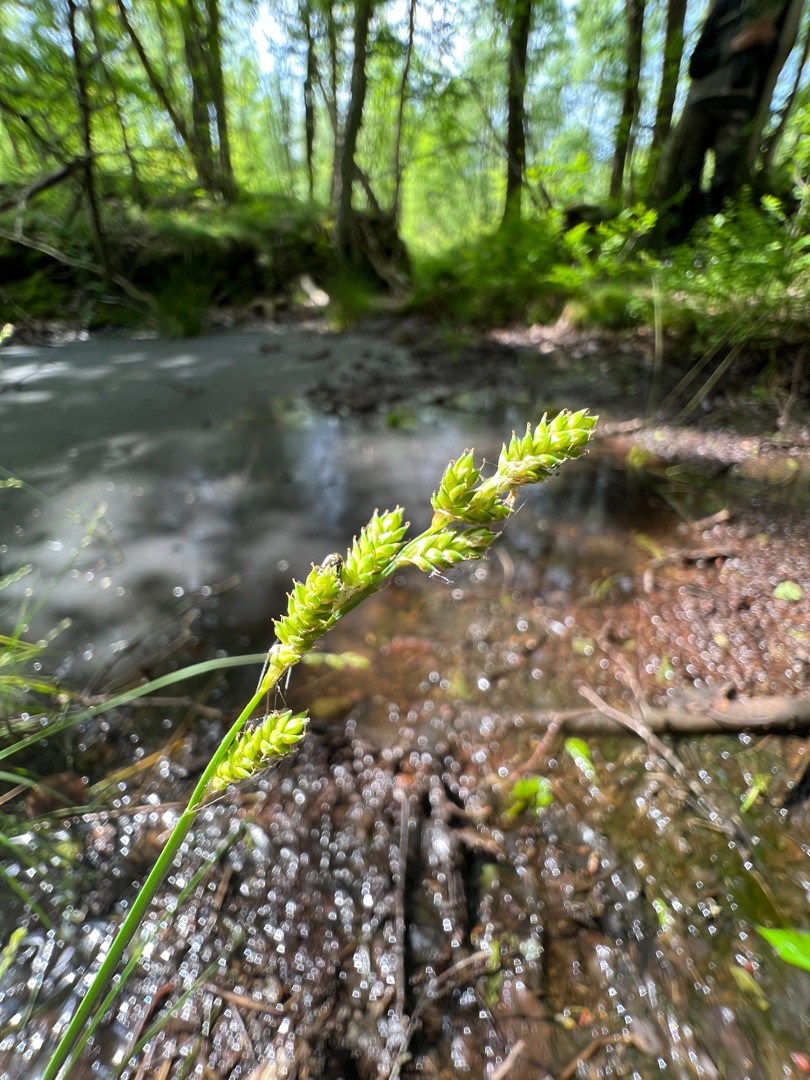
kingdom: Plantae
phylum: Tracheophyta
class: Liliopsida
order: Poales
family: Cyperaceae
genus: Carex
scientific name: Carex canescens
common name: Grå star
